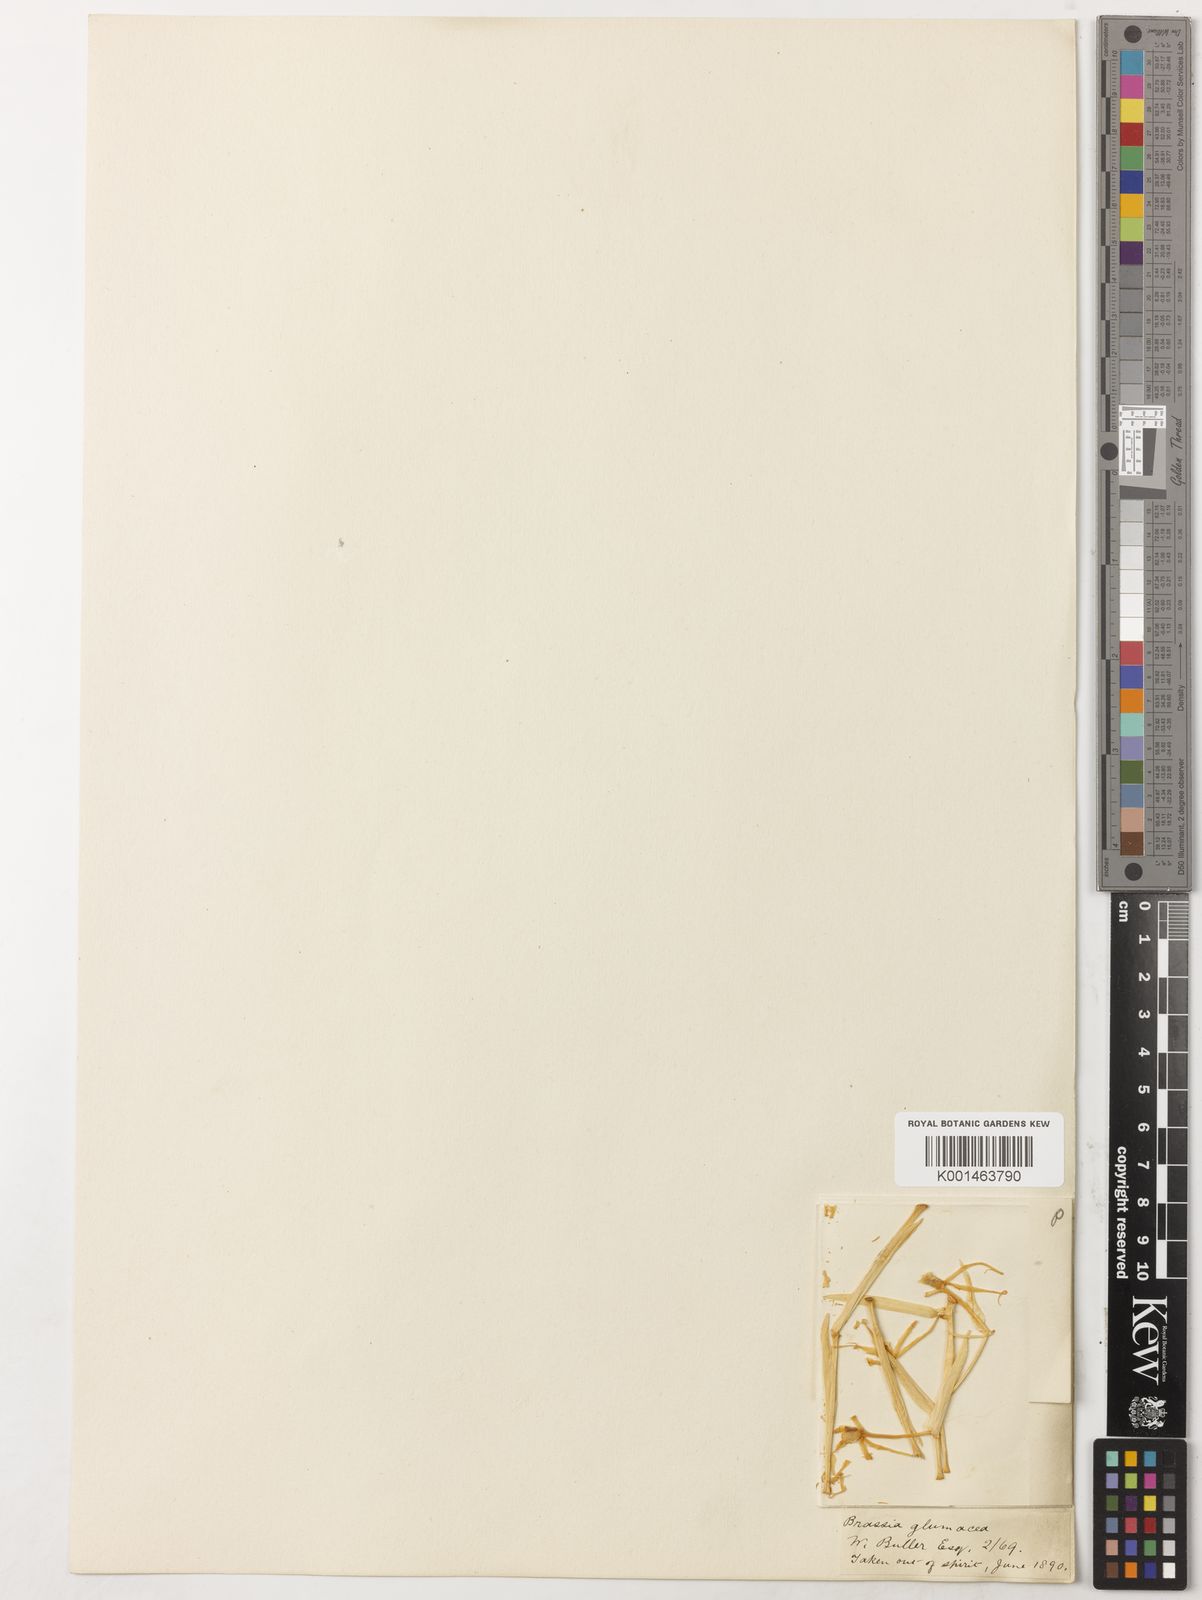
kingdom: Plantae
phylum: Tracheophyta
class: Liliopsida
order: Asparagales
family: Orchidaceae
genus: Brassia
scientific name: Brassia glumacea
